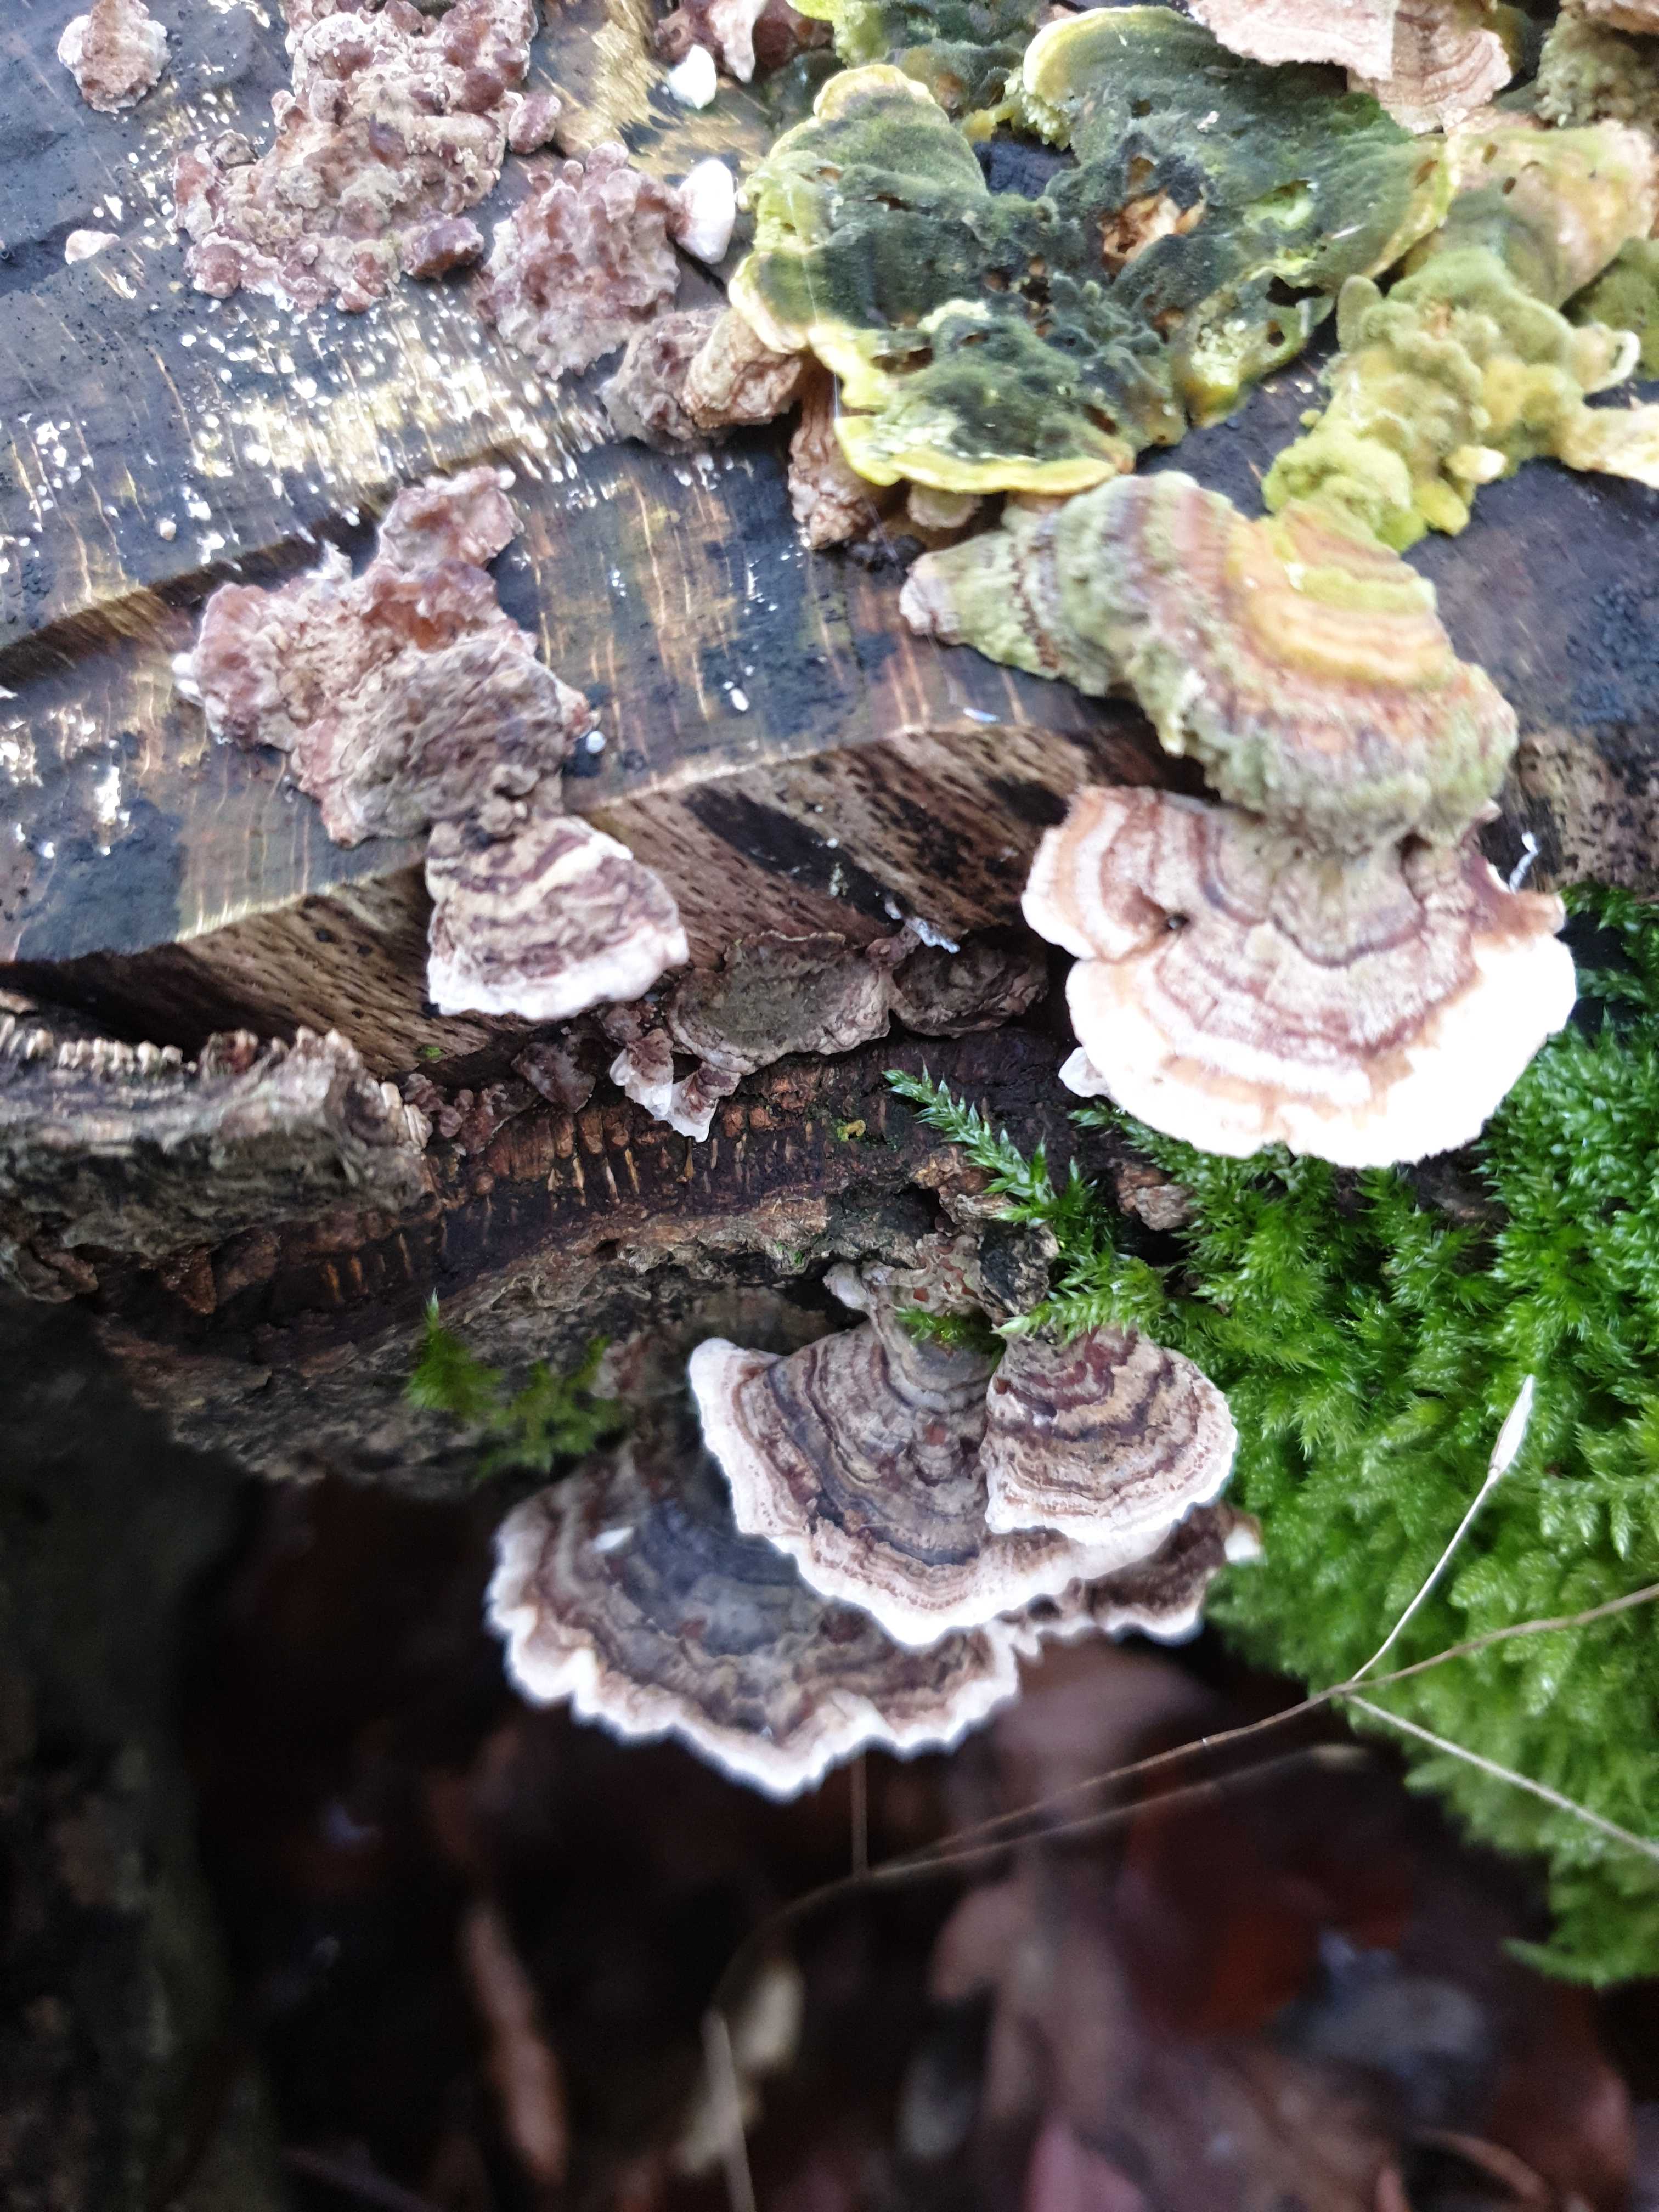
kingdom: Fungi
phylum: Basidiomycota
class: Agaricomycetes
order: Polyporales
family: Polyporaceae
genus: Trametes
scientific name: Trametes versicolor
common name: broget læderporesvamp
